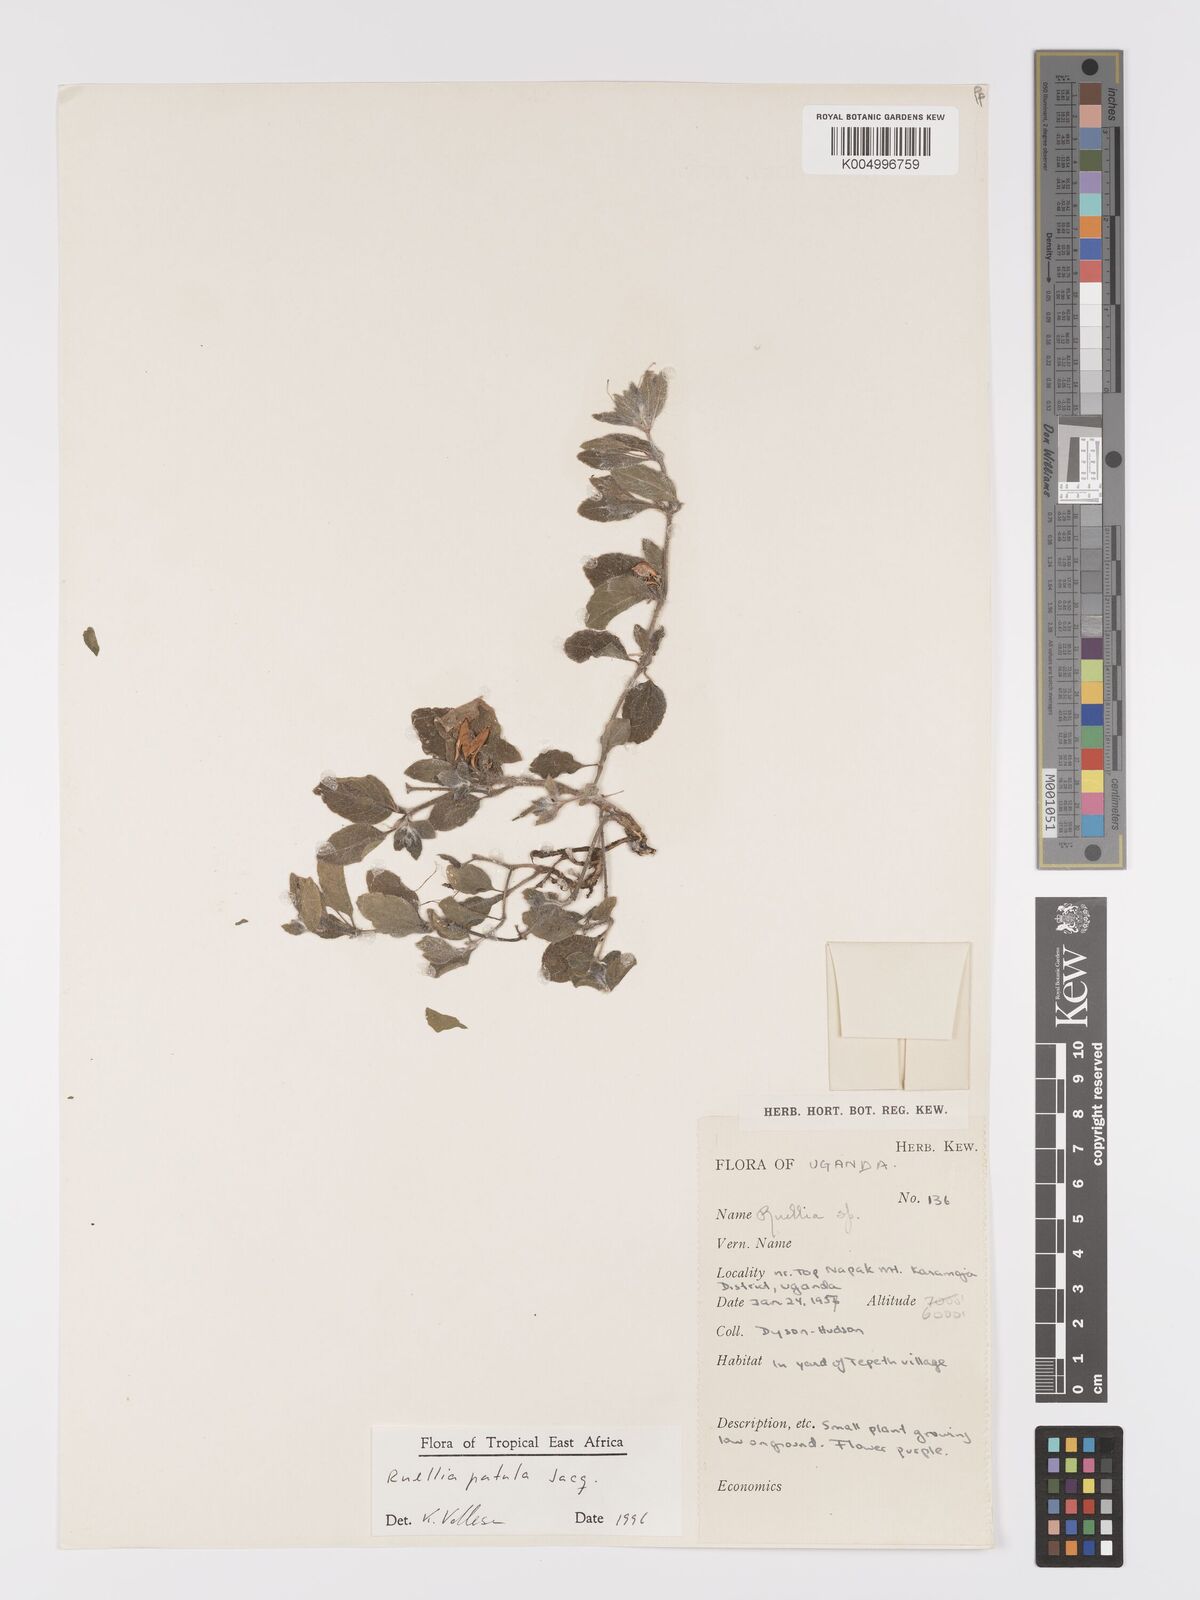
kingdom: Plantae
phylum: Tracheophyta
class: Magnoliopsida
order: Lamiales
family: Acanthaceae
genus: Ruellia
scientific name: Ruellia patula
